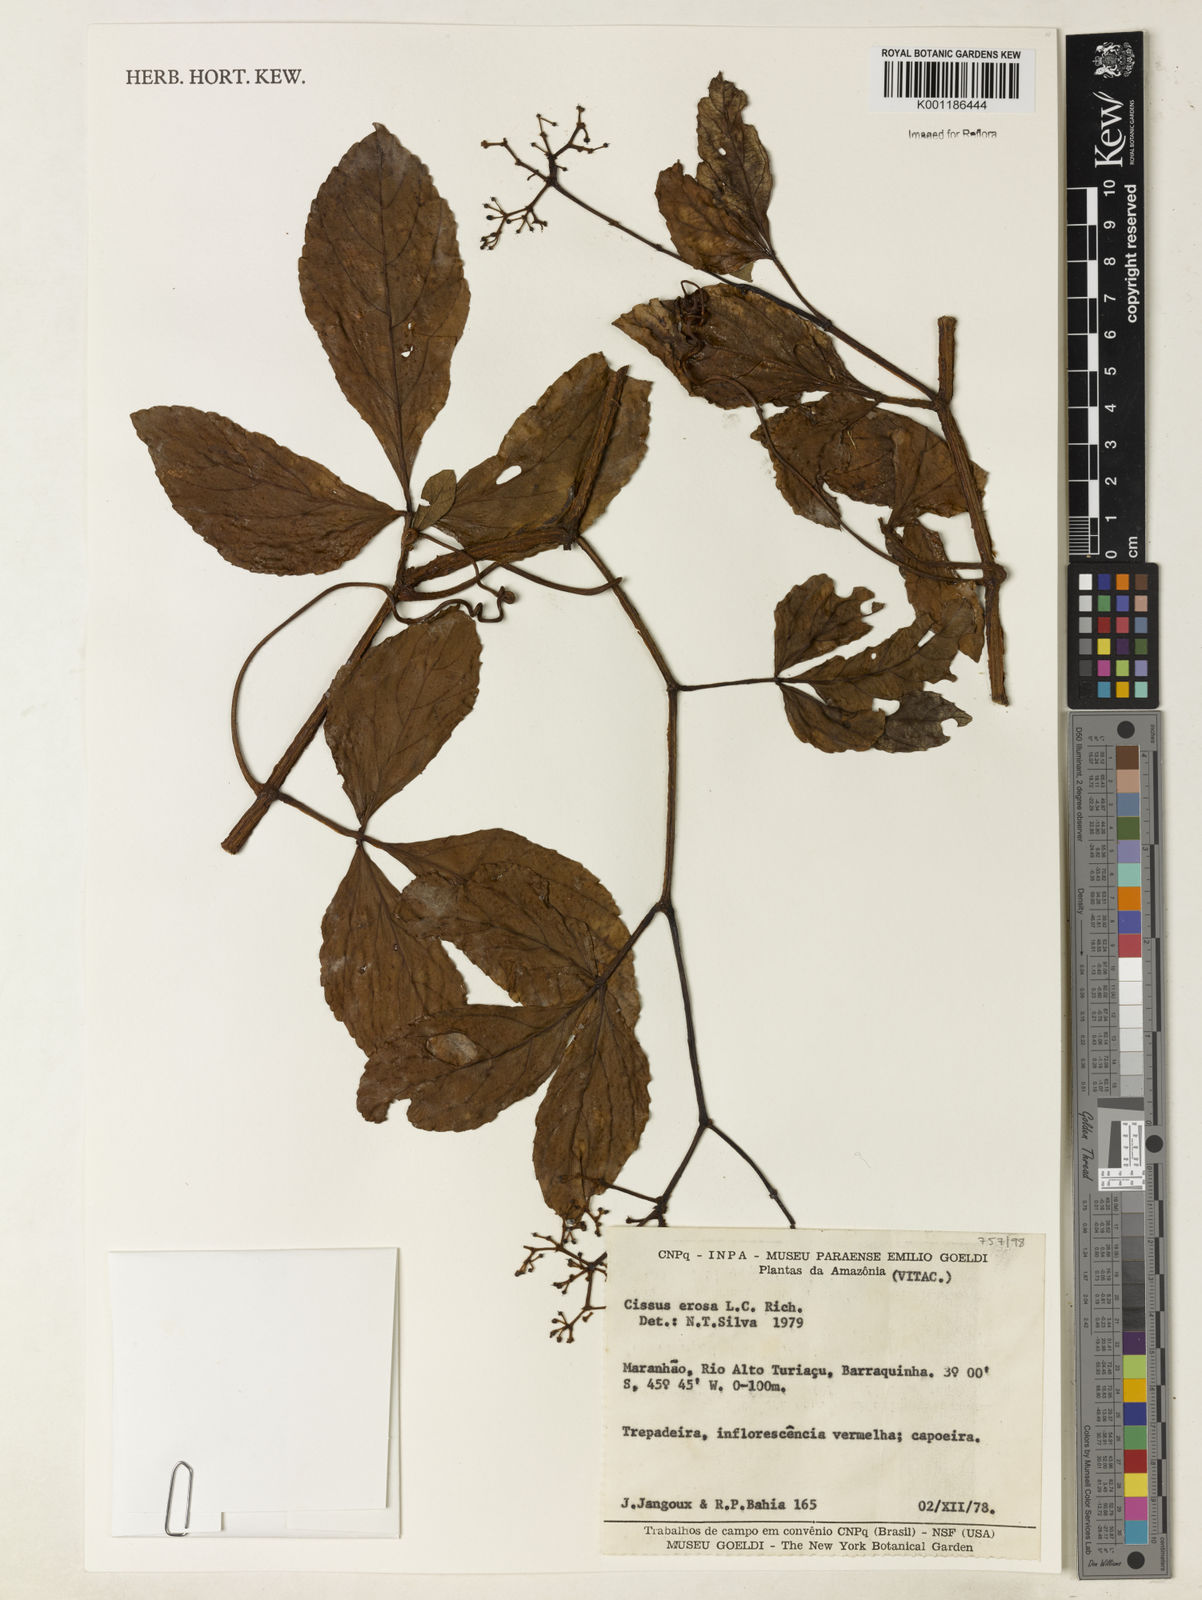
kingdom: Plantae
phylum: Tracheophyta
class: Magnoliopsida
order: Vitales
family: Vitaceae
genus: Cissus
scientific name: Cissus erosa
